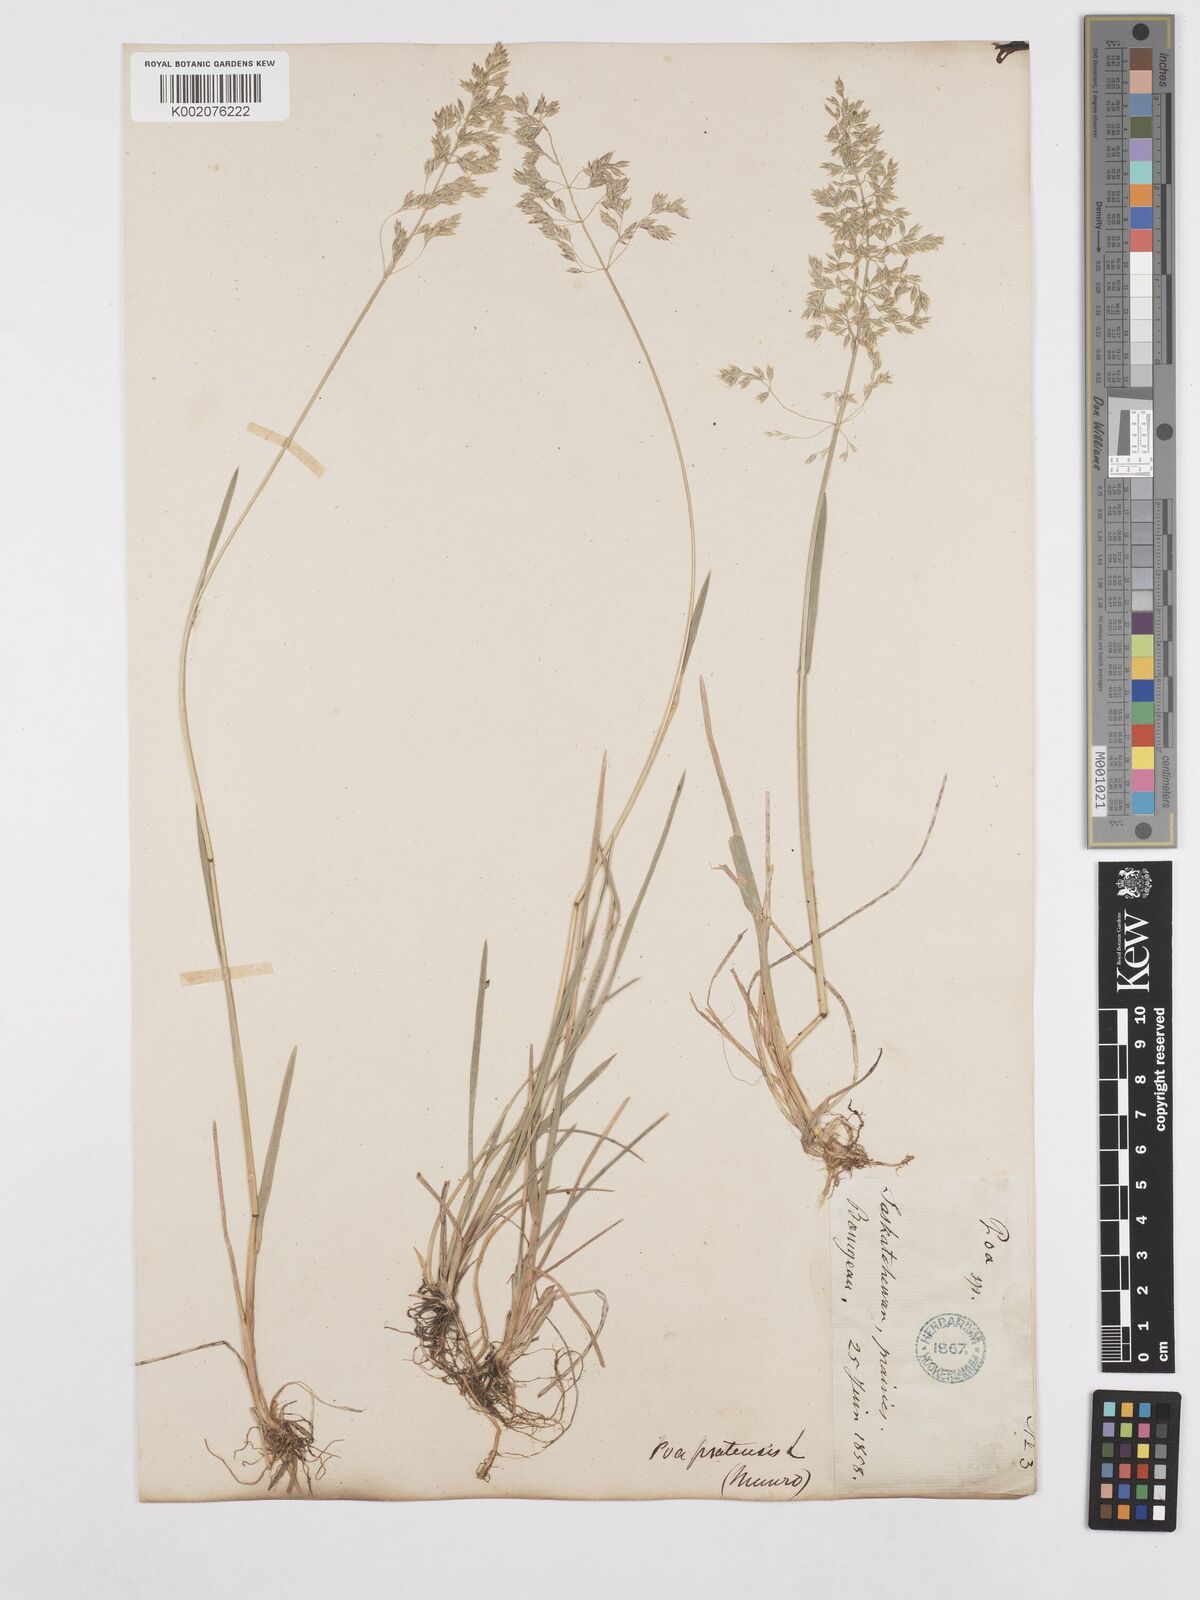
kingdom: Plantae
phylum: Tracheophyta
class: Liliopsida
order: Poales
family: Poaceae
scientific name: Poaceae
